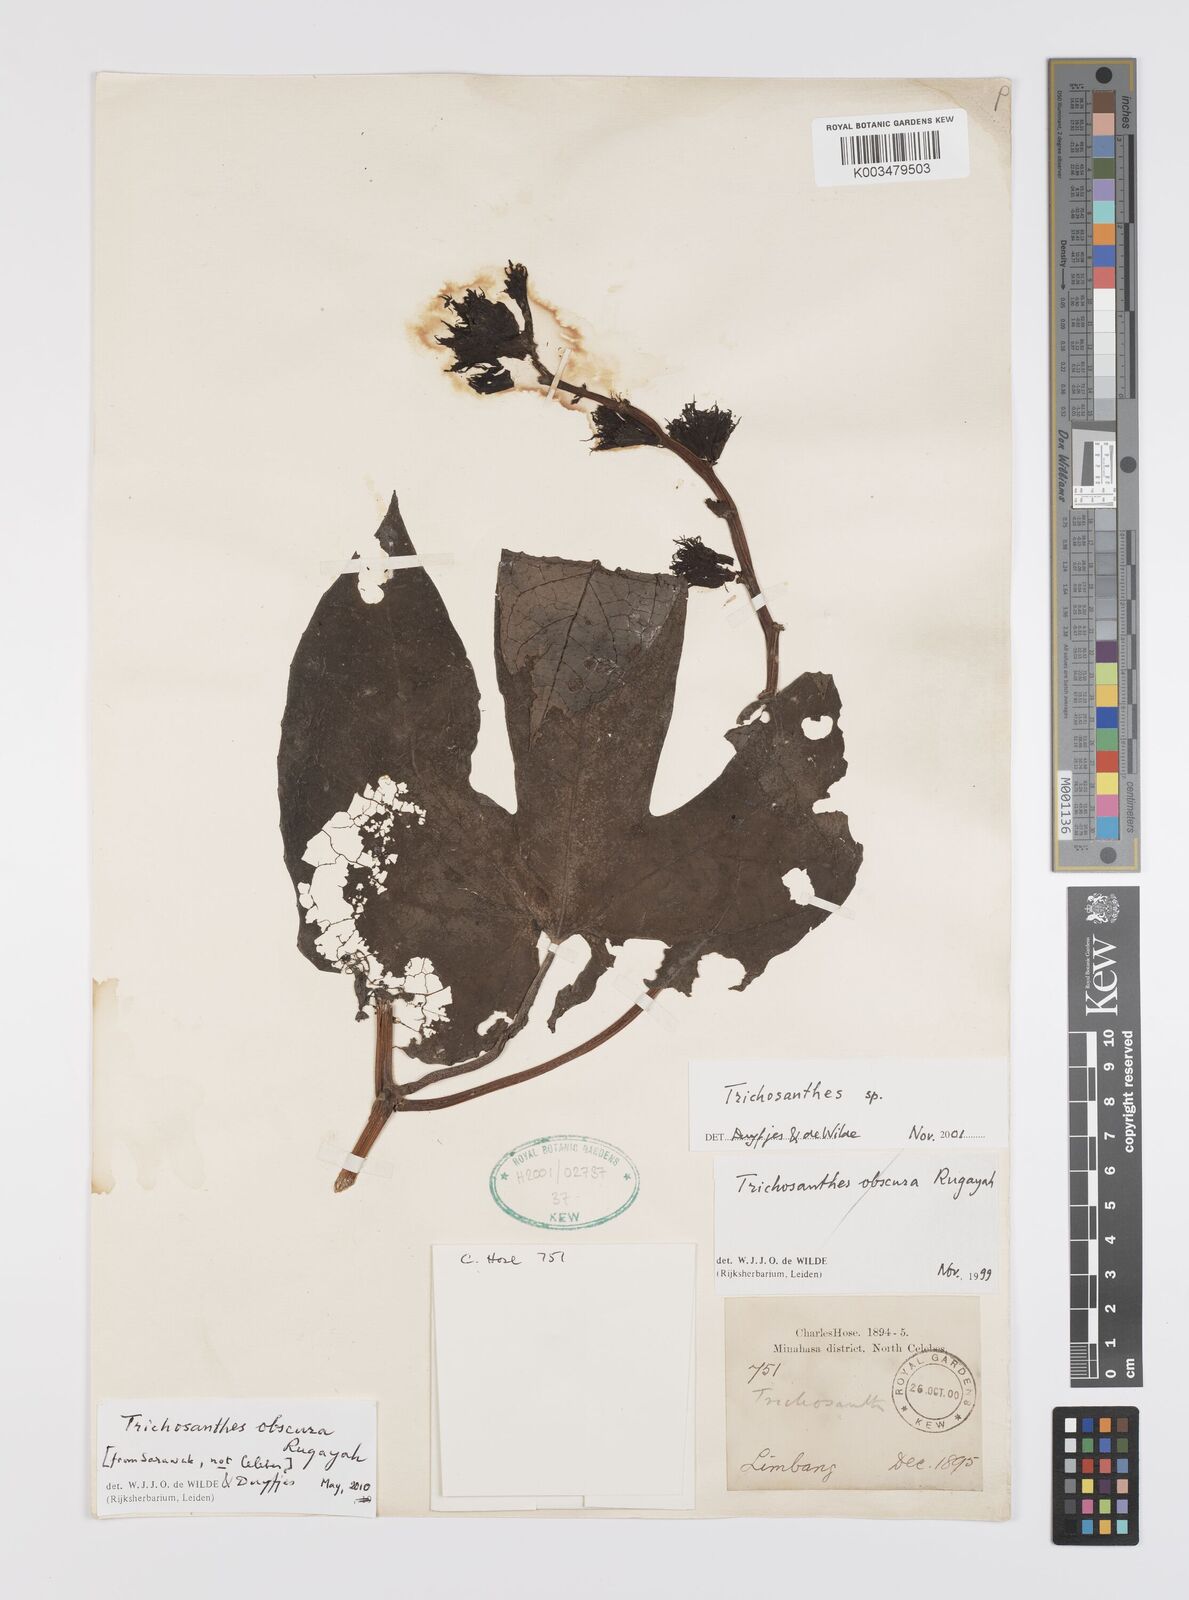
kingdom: Plantae
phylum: Tracheophyta
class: Magnoliopsida
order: Cucurbitales
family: Cucurbitaceae
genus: Trichosanthes
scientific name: Trichosanthes obscura
